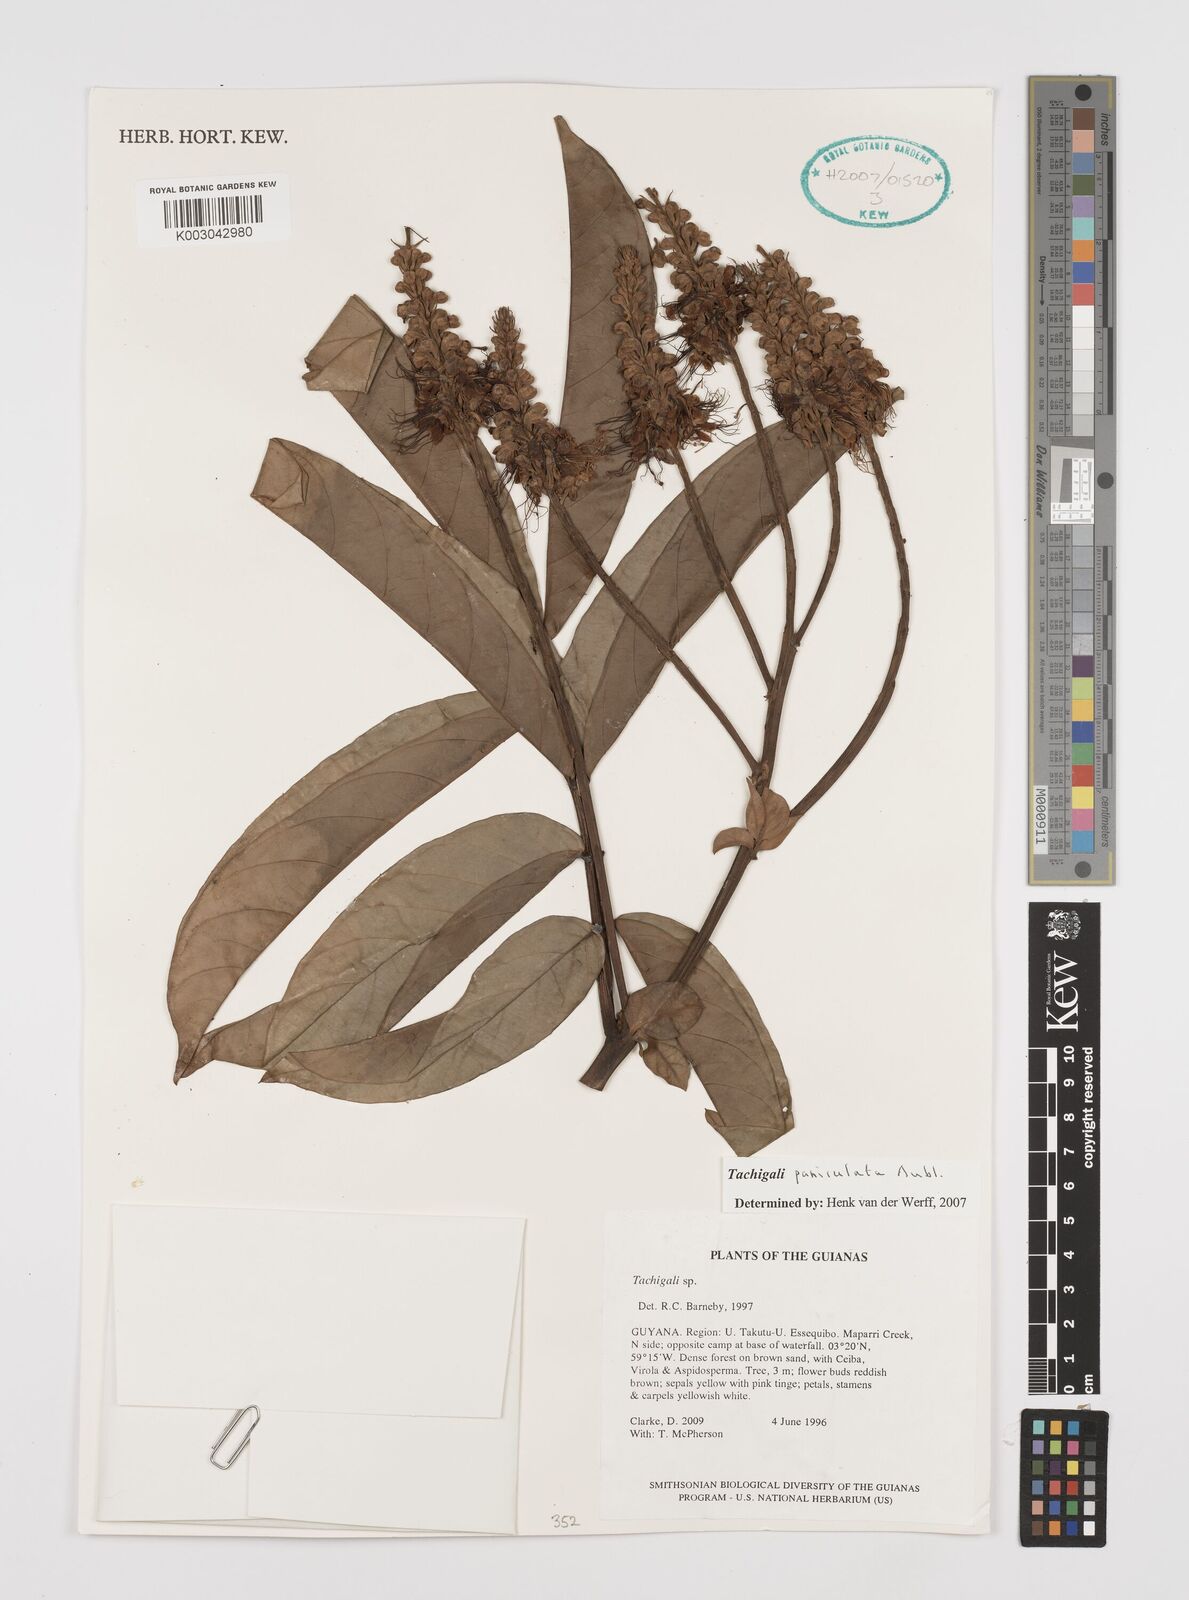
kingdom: Plantae
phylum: Tracheophyta
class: Magnoliopsida
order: Fabales
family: Fabaceae
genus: Tachigali
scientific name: Tachigali paniculata
